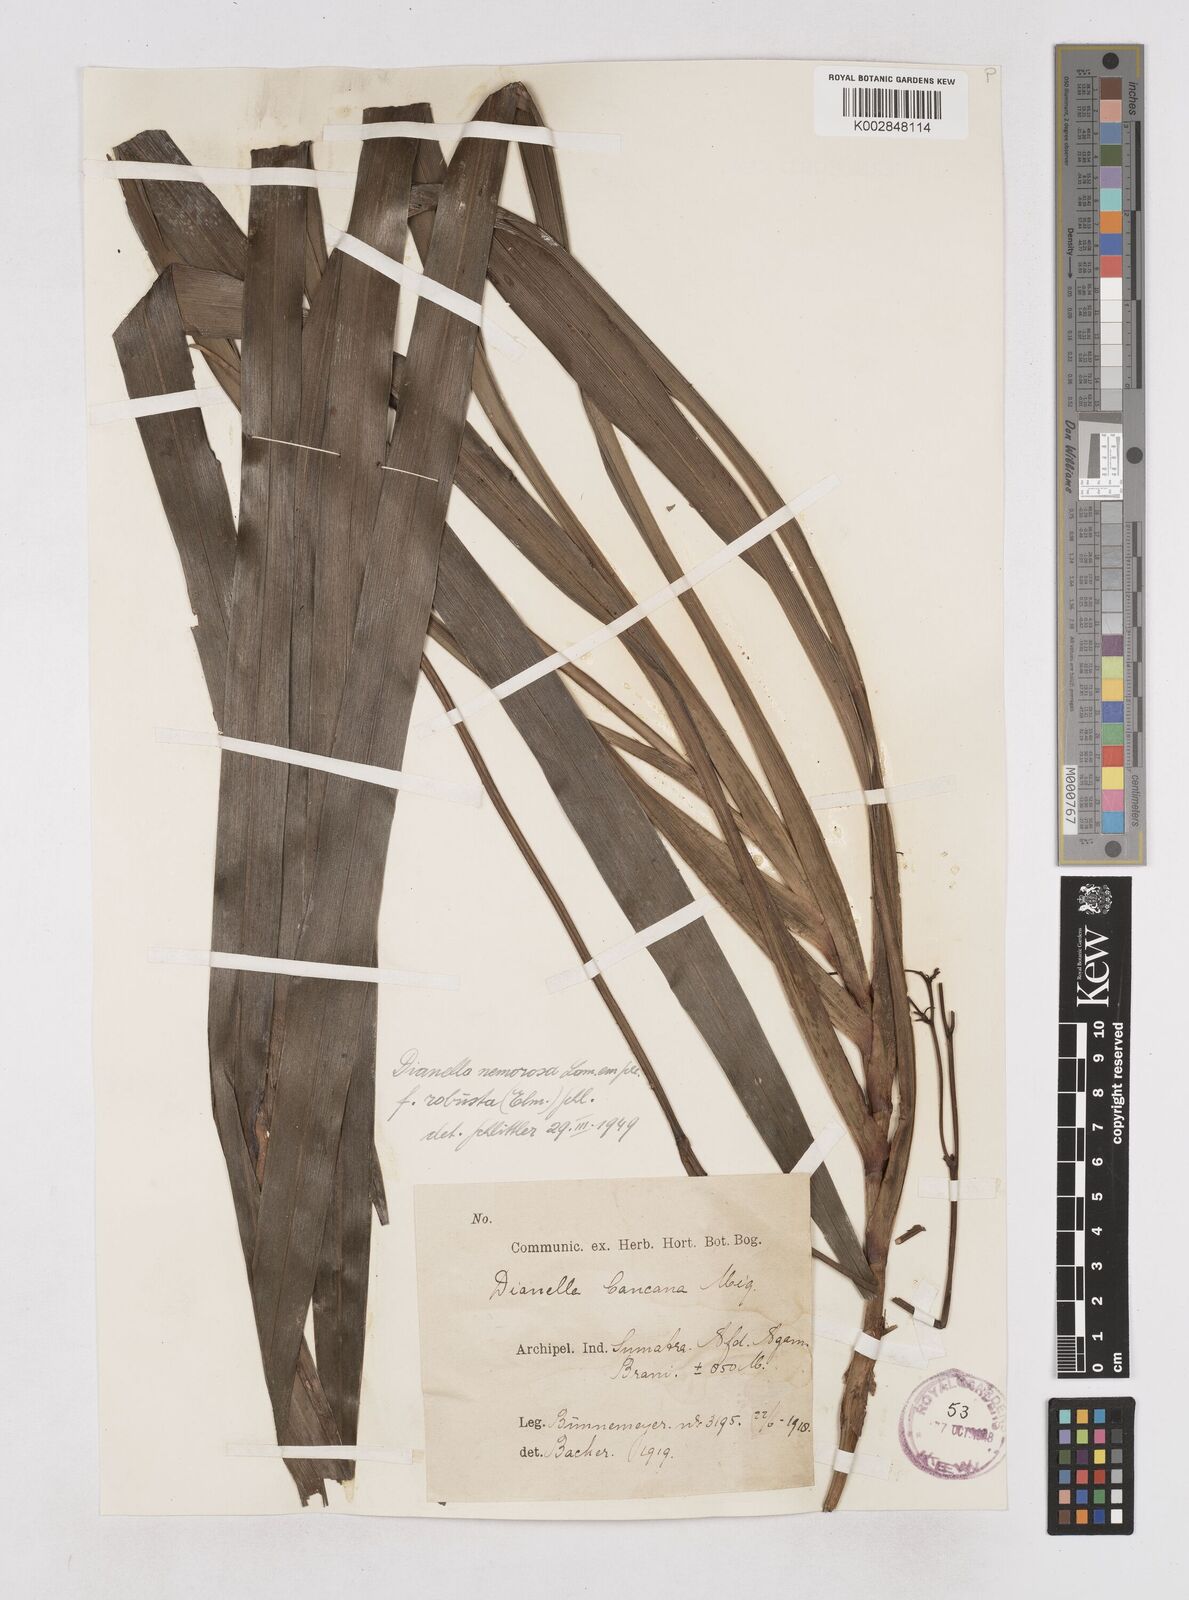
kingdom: Plantae
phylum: Tracheophyta
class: Liliopsida
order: Asparagales
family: Asphodelaceae
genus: Dianella
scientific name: Dianella ensifolia
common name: New zealand lilyplant
